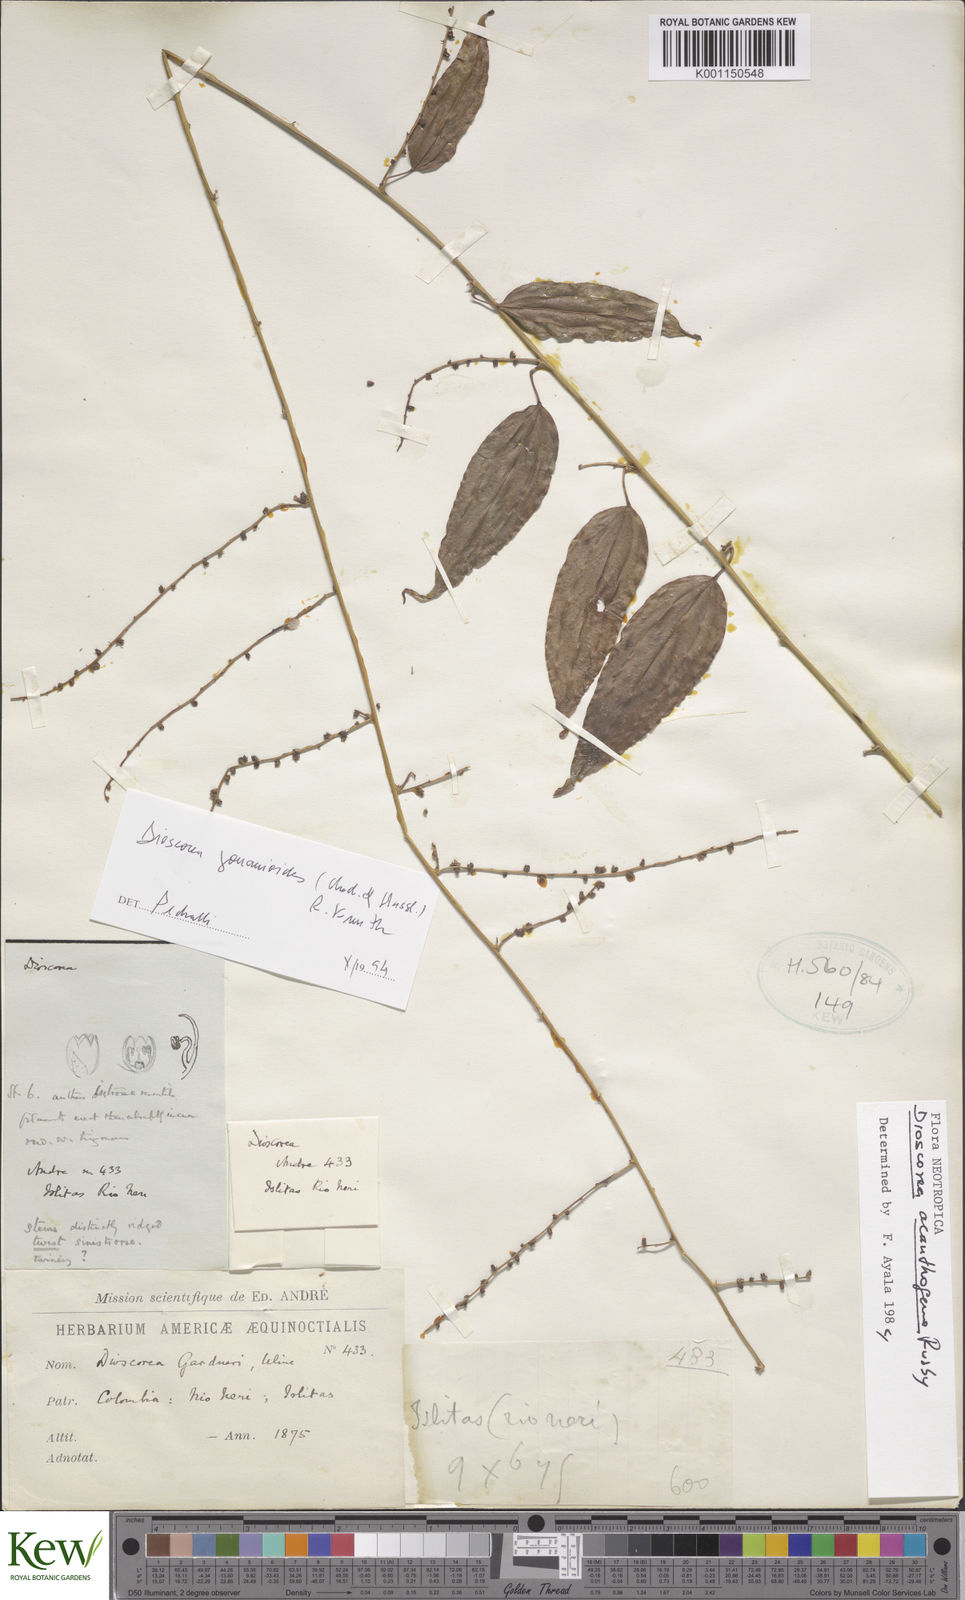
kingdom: Plantae
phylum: Tracheophyta
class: Liliopsida
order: Dioscoreales
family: Dioscoreaceae
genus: Dioscorea
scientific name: Dioscorea acanthogene
